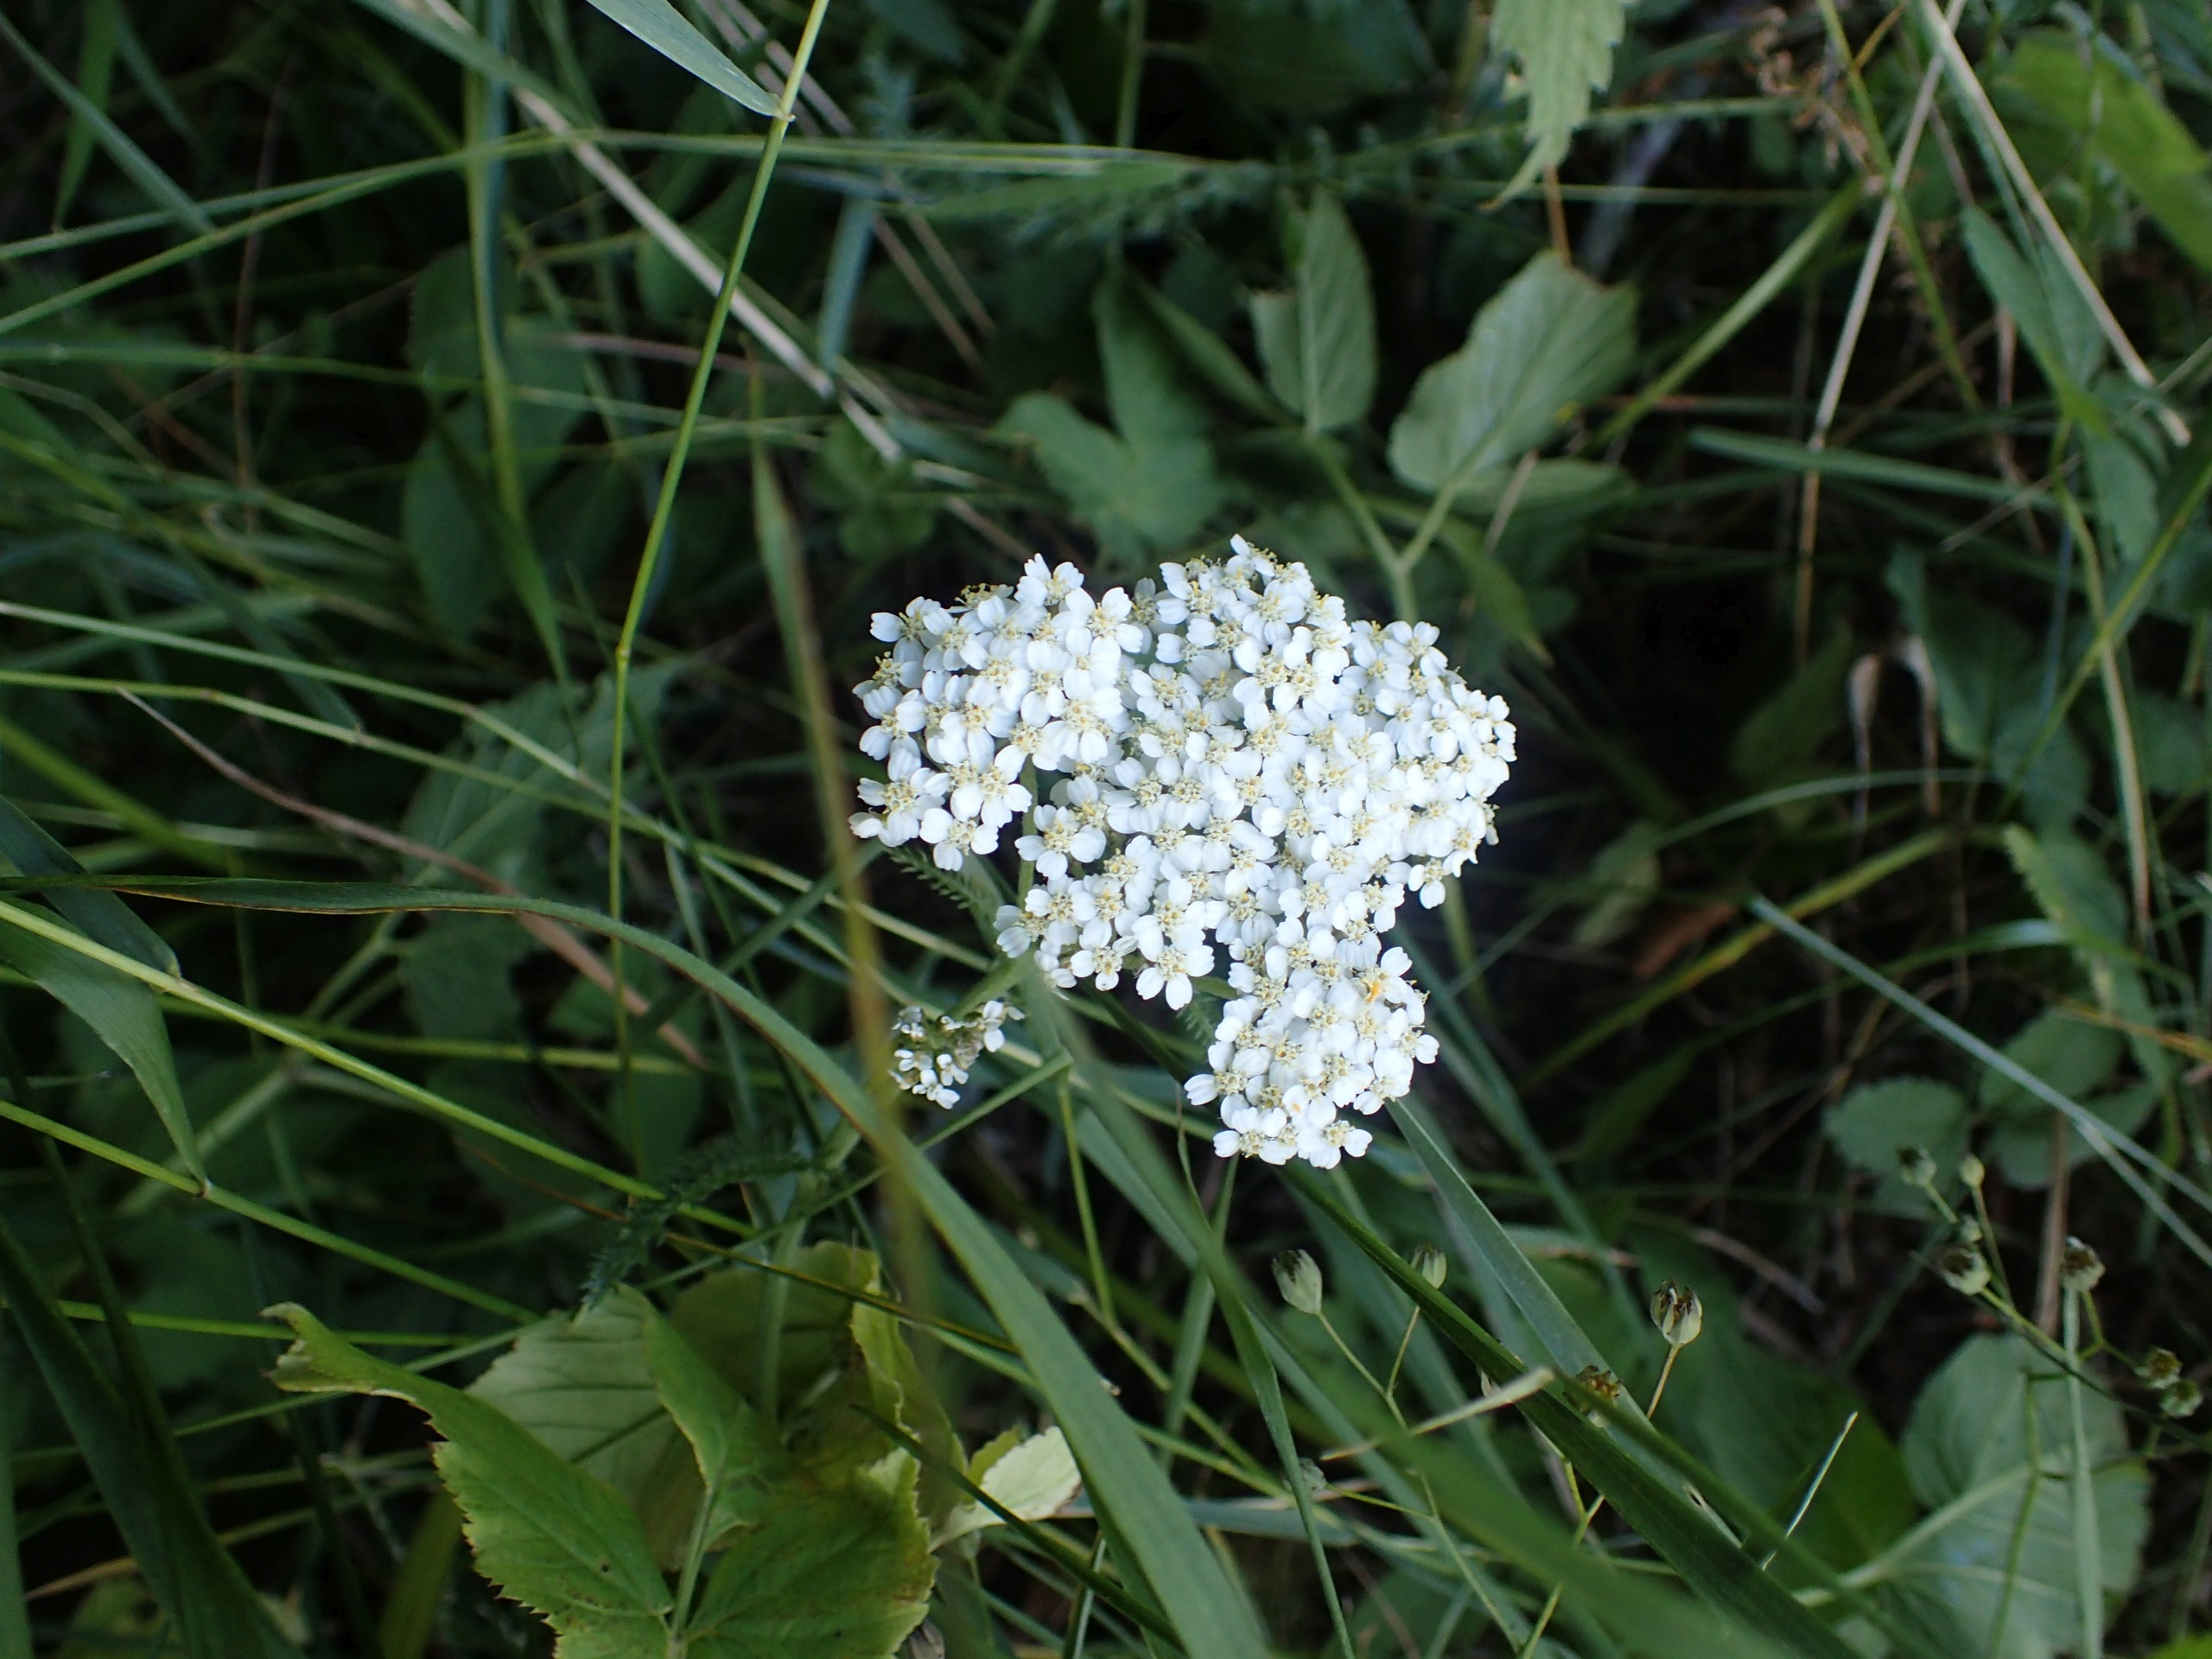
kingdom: Plantae
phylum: Tracheophyta
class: Magnoliopsida
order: Asterales
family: Asteraceae
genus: Achillea
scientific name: Achillea millefolium
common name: Almindelig røllike
